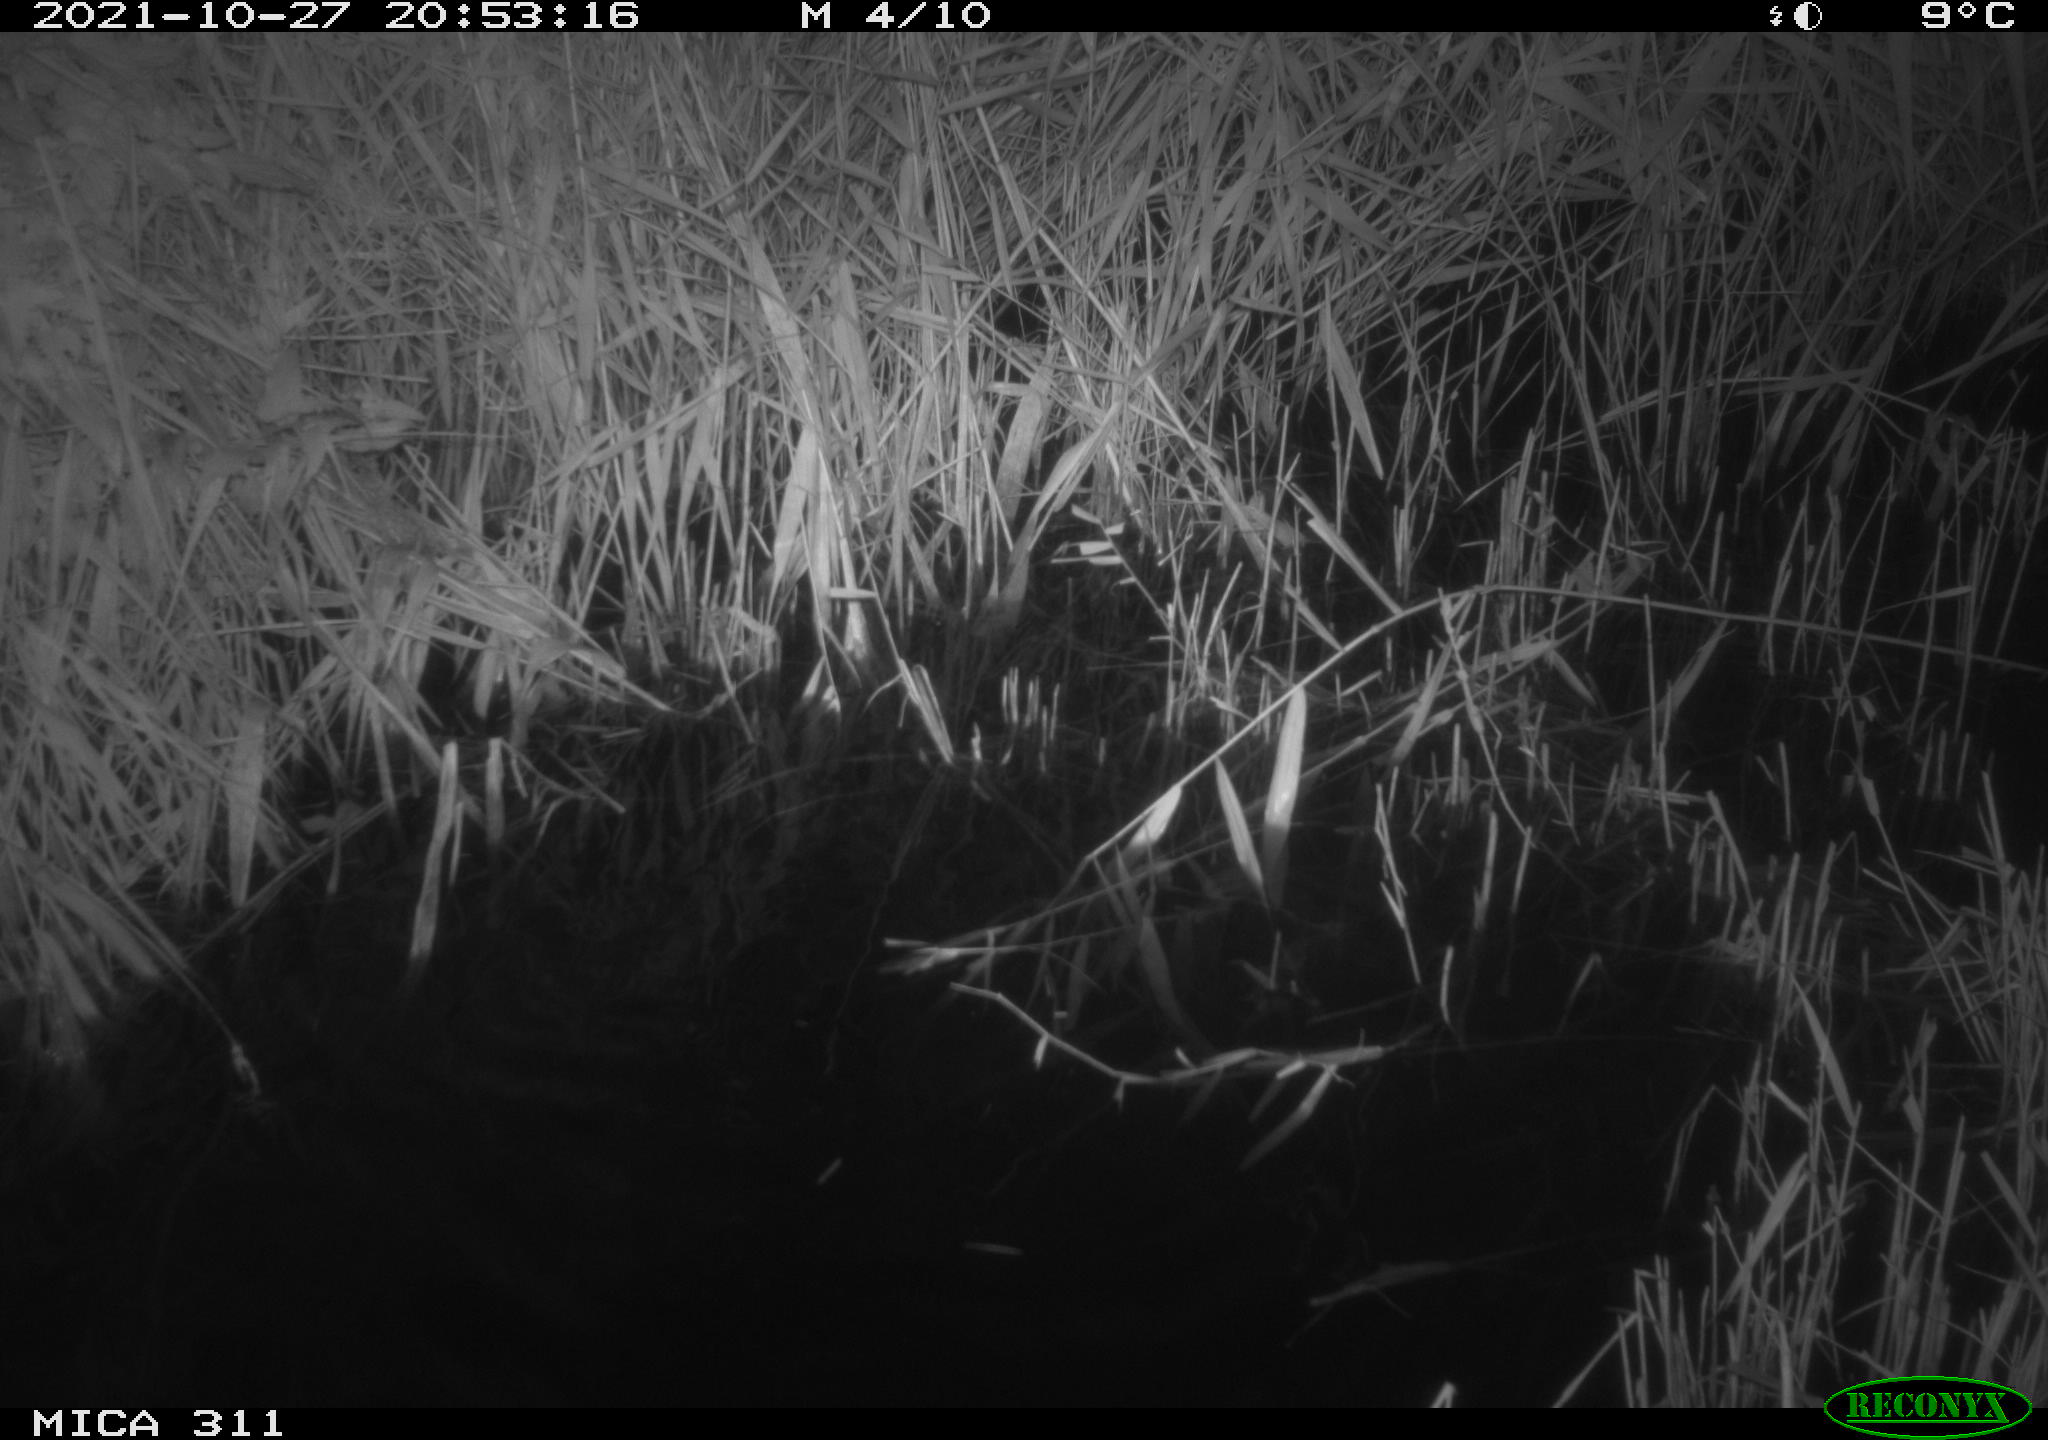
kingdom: Animalia
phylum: Chordata
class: Mammalia
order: Rodentia
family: Muridae
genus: Rattus
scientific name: Rattus norvegicus
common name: Brown rat
